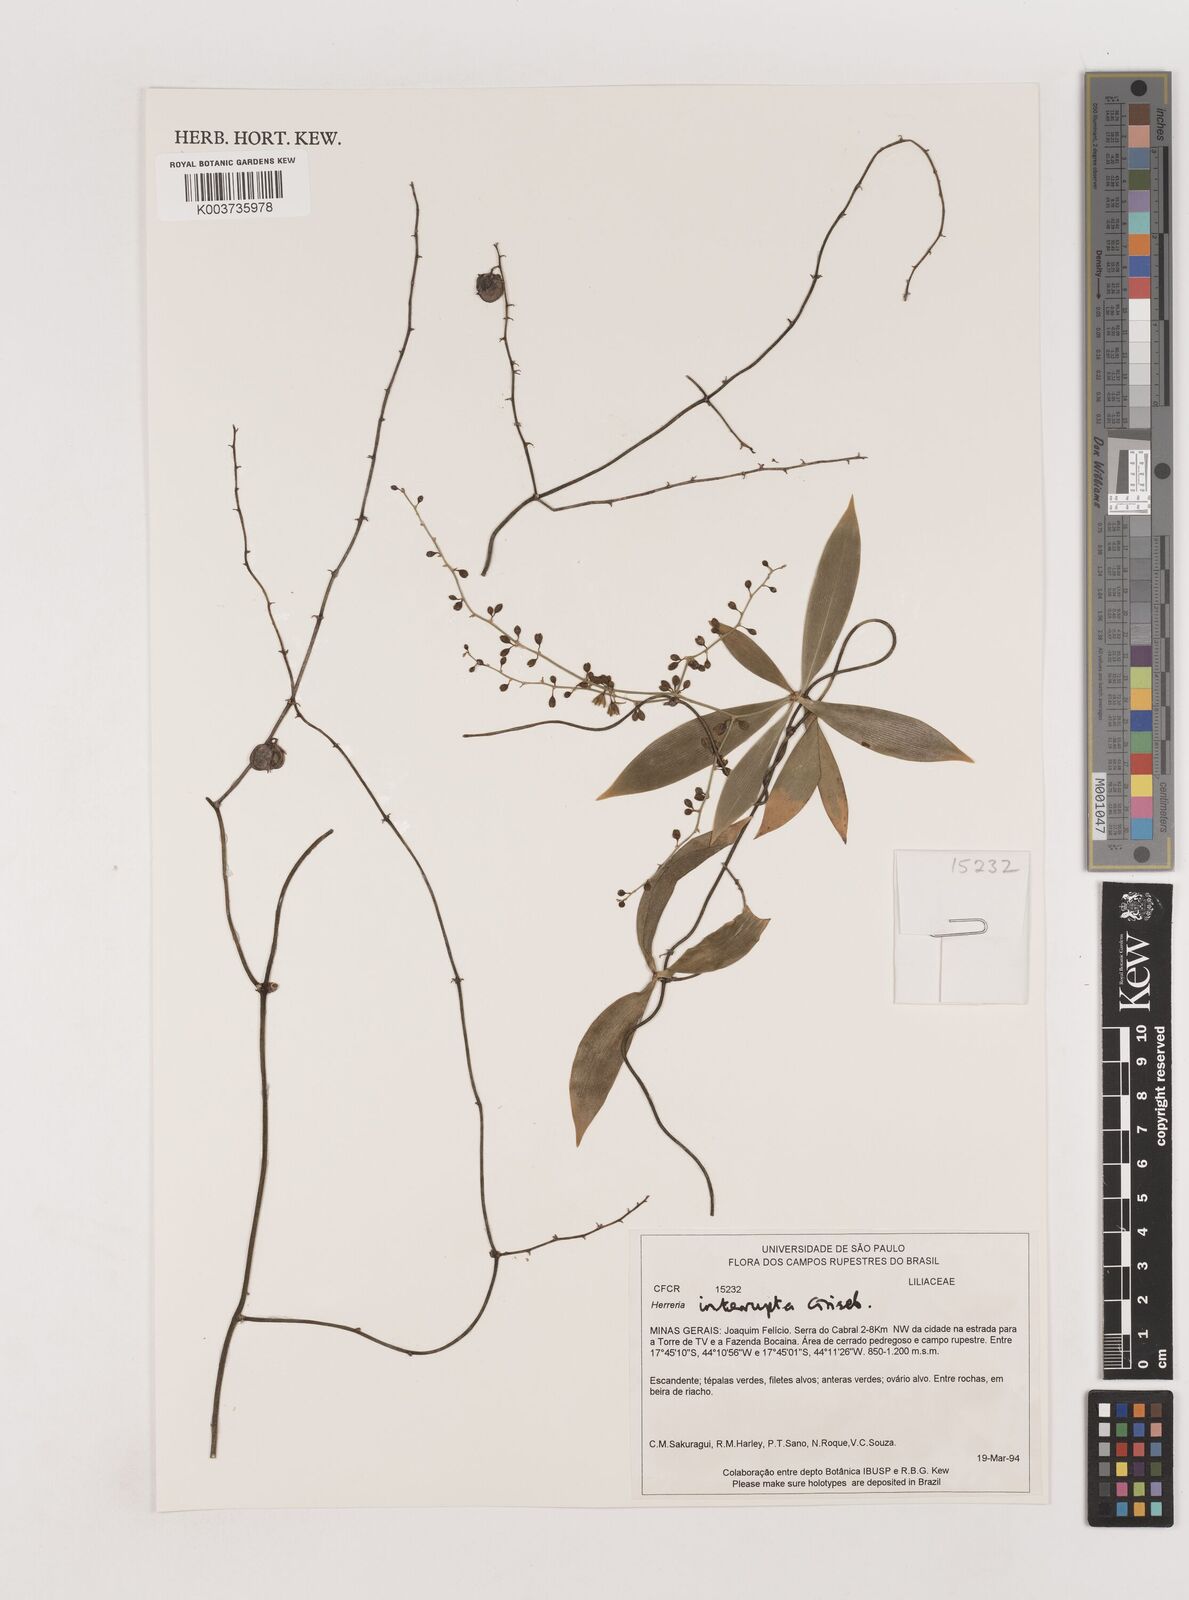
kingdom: Plantae
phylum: Tracheophyta
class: Liliopsida
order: Asparagales
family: Asparagaceae
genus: Herreria
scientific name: Herreria salsaparilha
